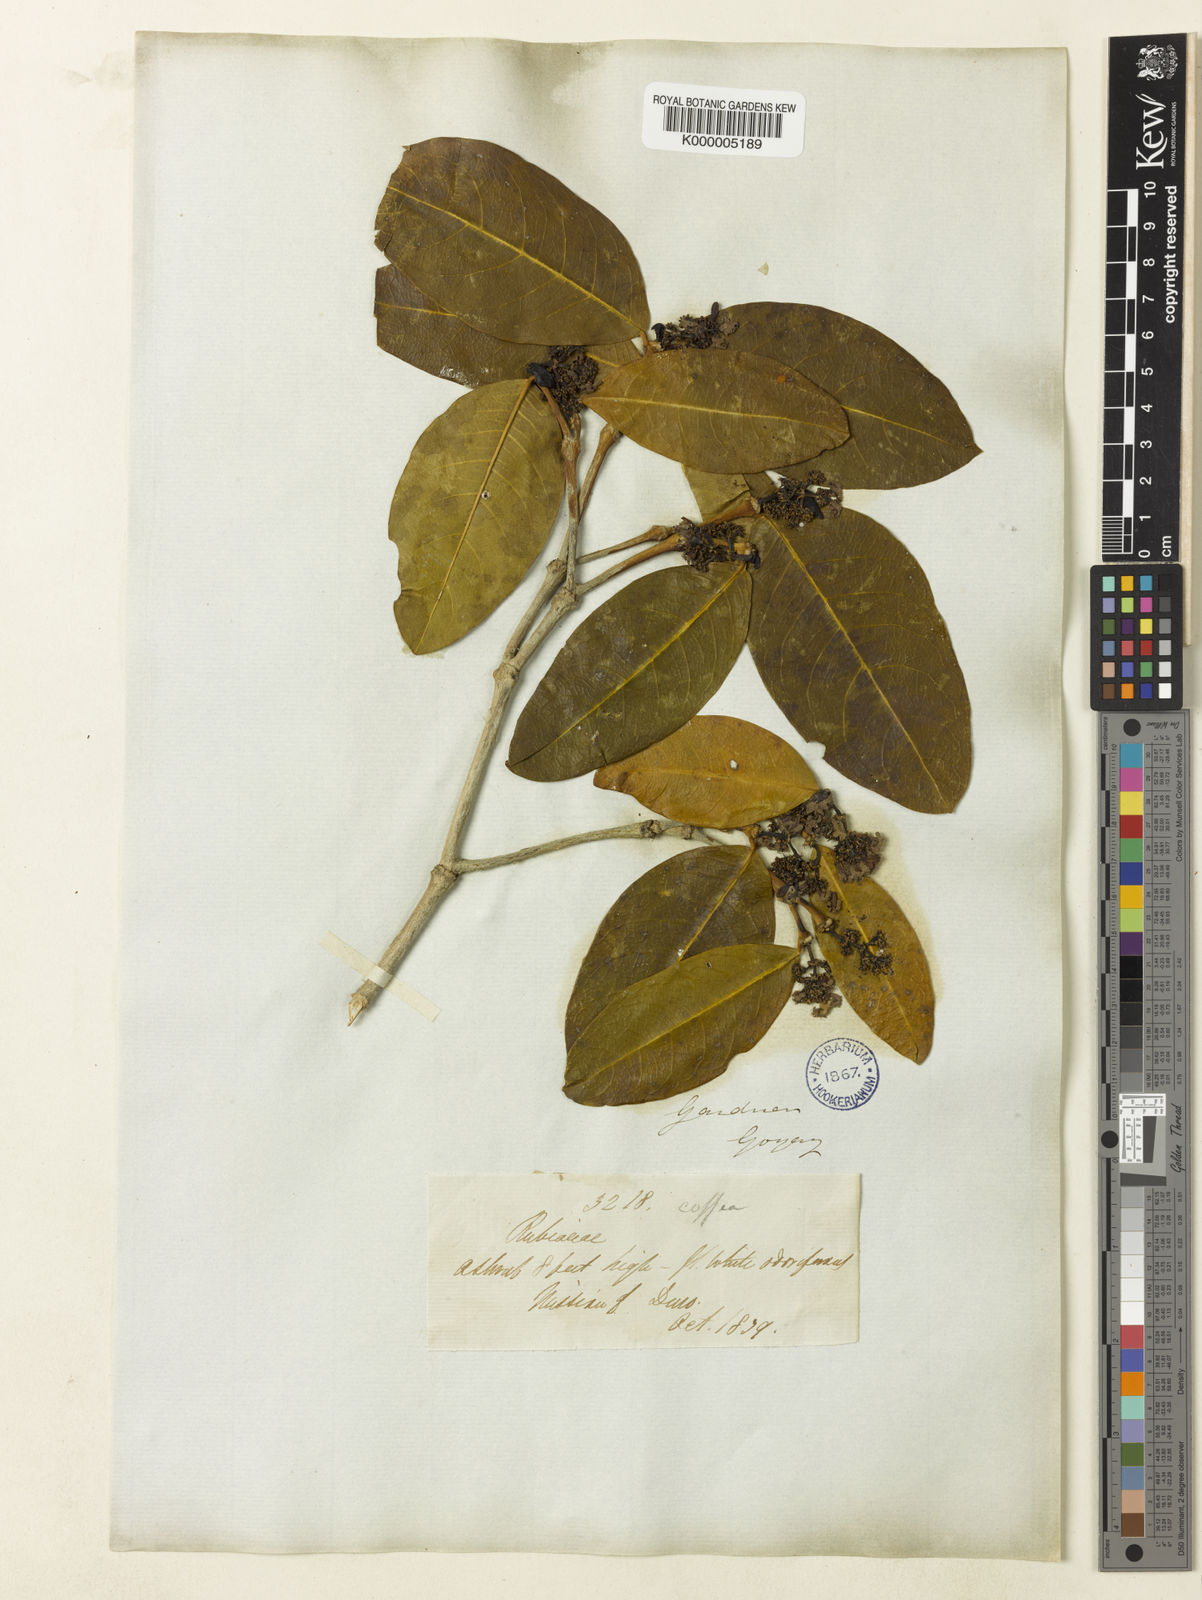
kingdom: Plantae
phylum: Tracheophyta
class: Magnoliopsida
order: Gentianales
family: Rubiaceae
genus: Rudgea
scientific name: Rudgea erioloba
